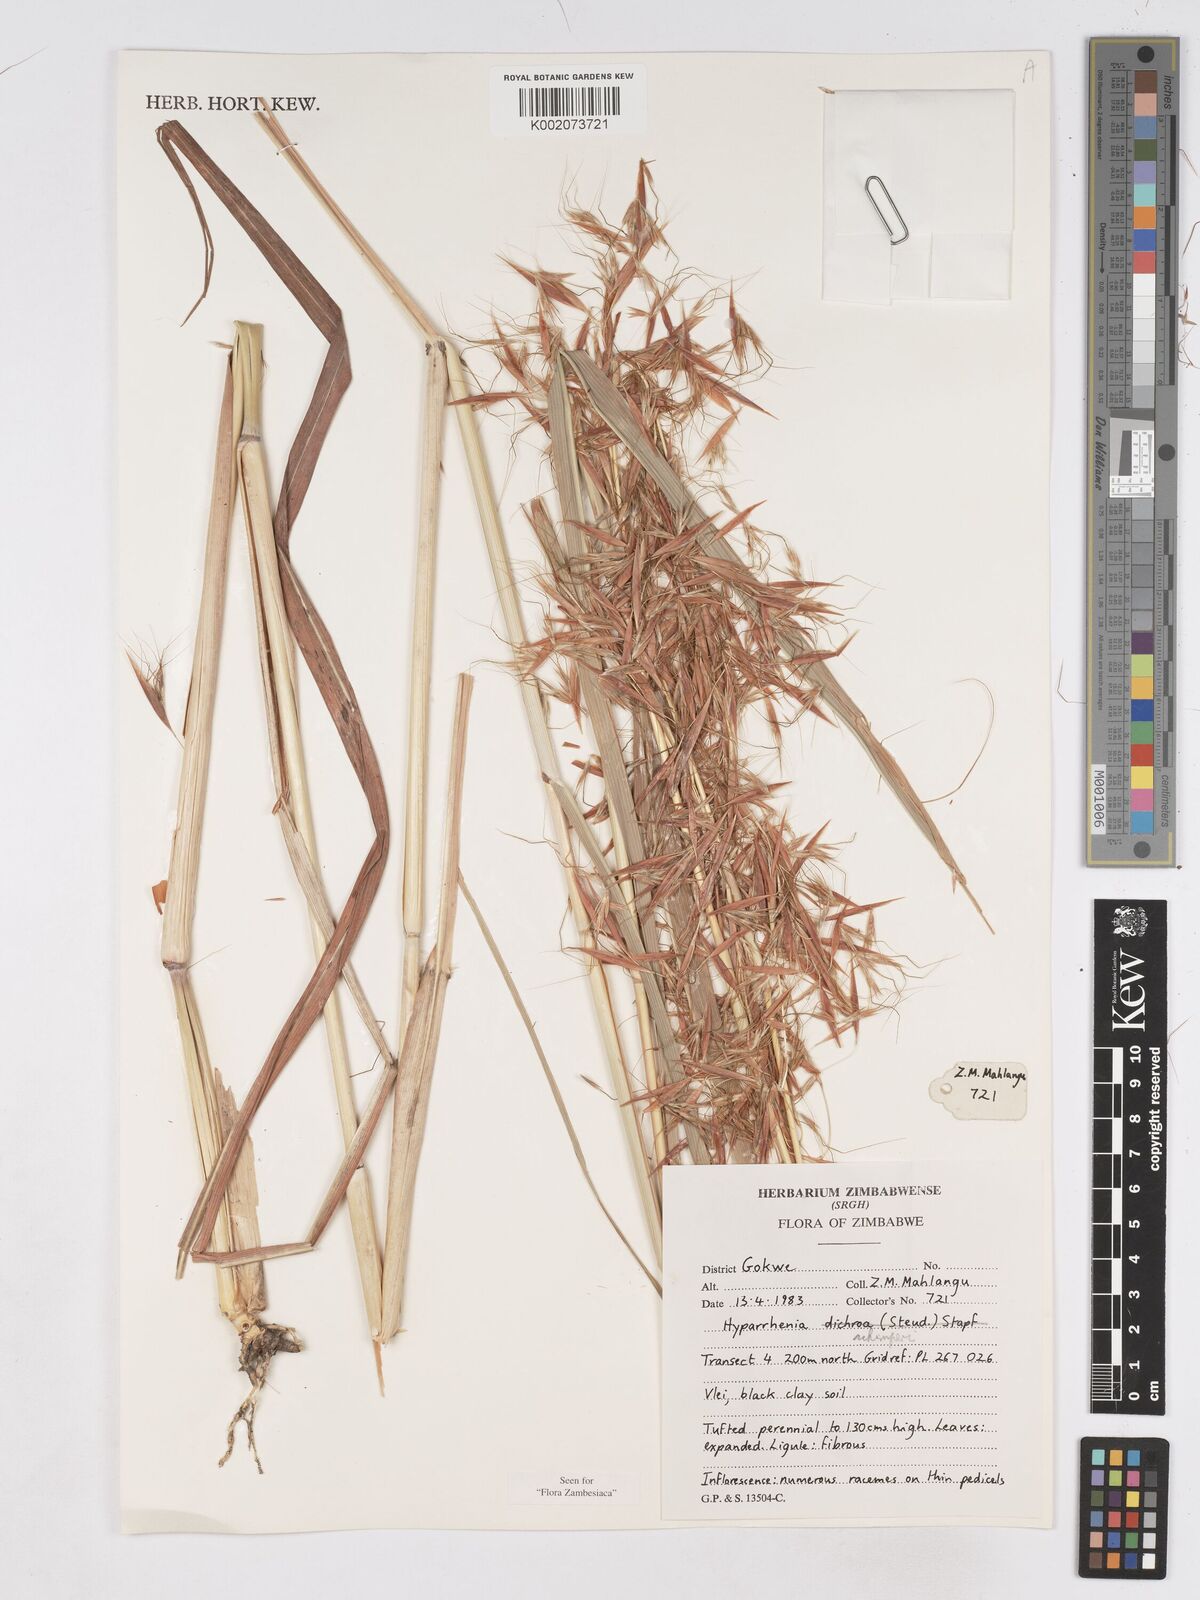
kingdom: Plantae
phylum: Tracheophyta
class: Liliopsida
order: Poales
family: Poaceae
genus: Hyparrhenia
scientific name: Hyparrhenia schimperi
